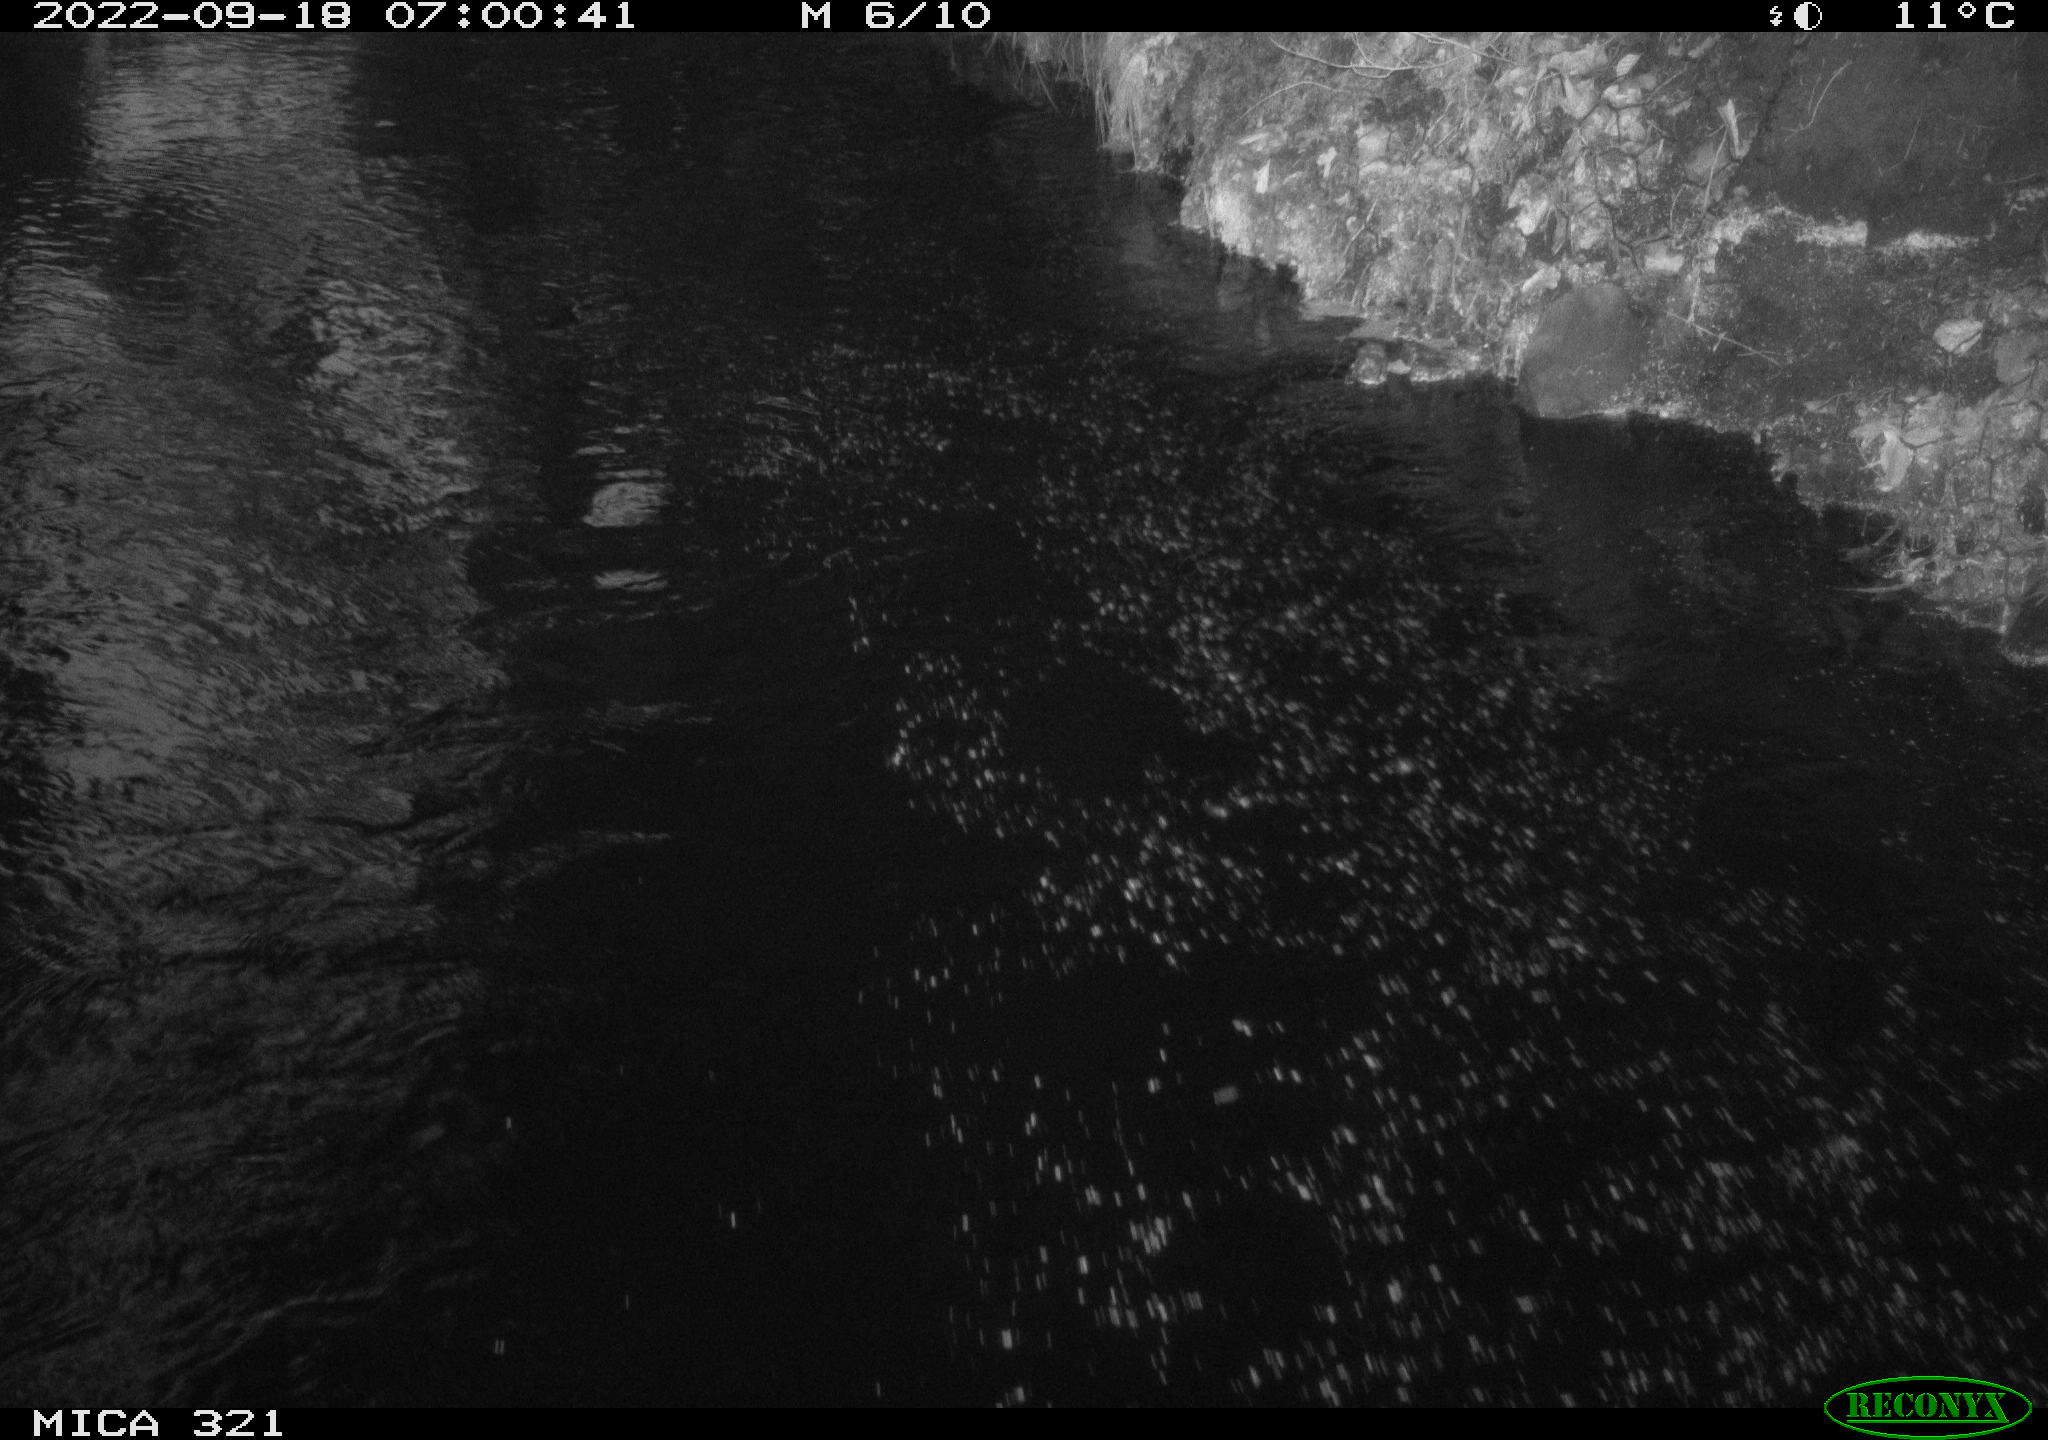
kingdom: Animalia
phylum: Chordata
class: Aves
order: Gruiformes
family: Rallidae
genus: Gallinula
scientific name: Gallinula chloropus
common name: Common moorhen
